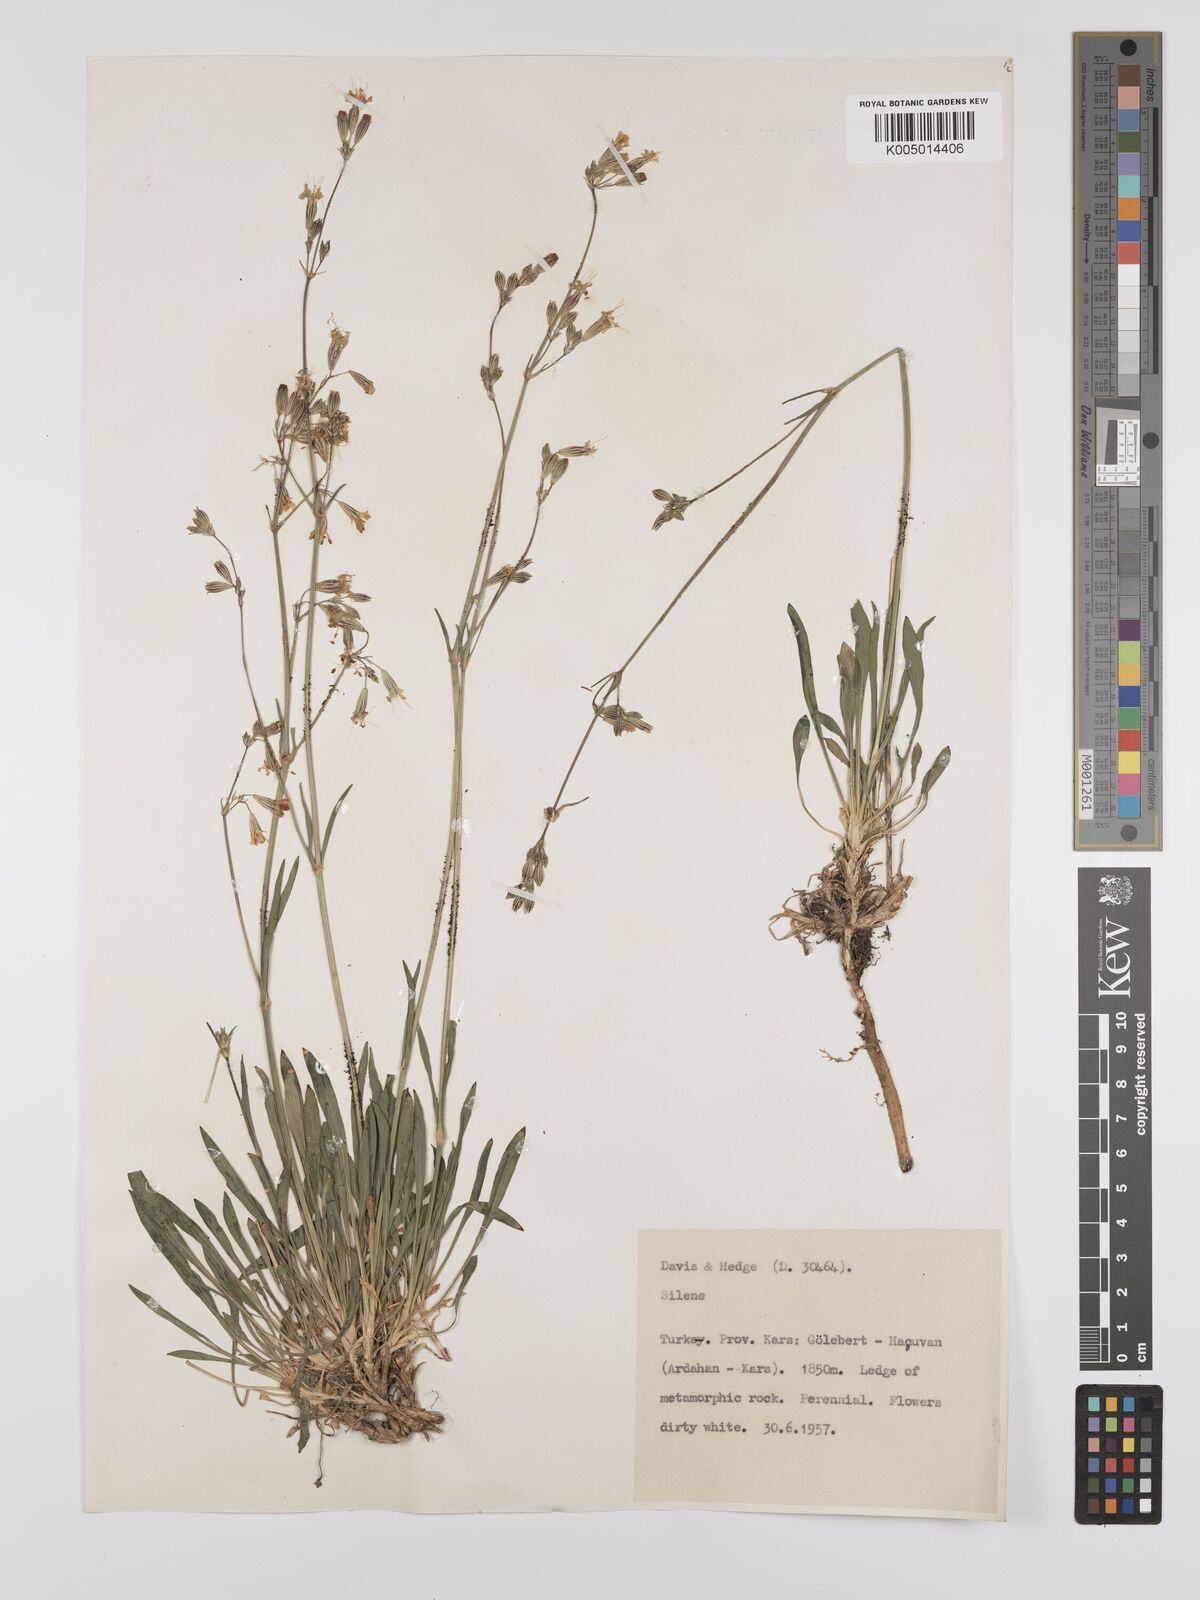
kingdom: Plantae
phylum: Tracheophyta
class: Magnoliopsida
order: Caryophyllales
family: Caryophyllaceae
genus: Silene
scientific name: Silene
